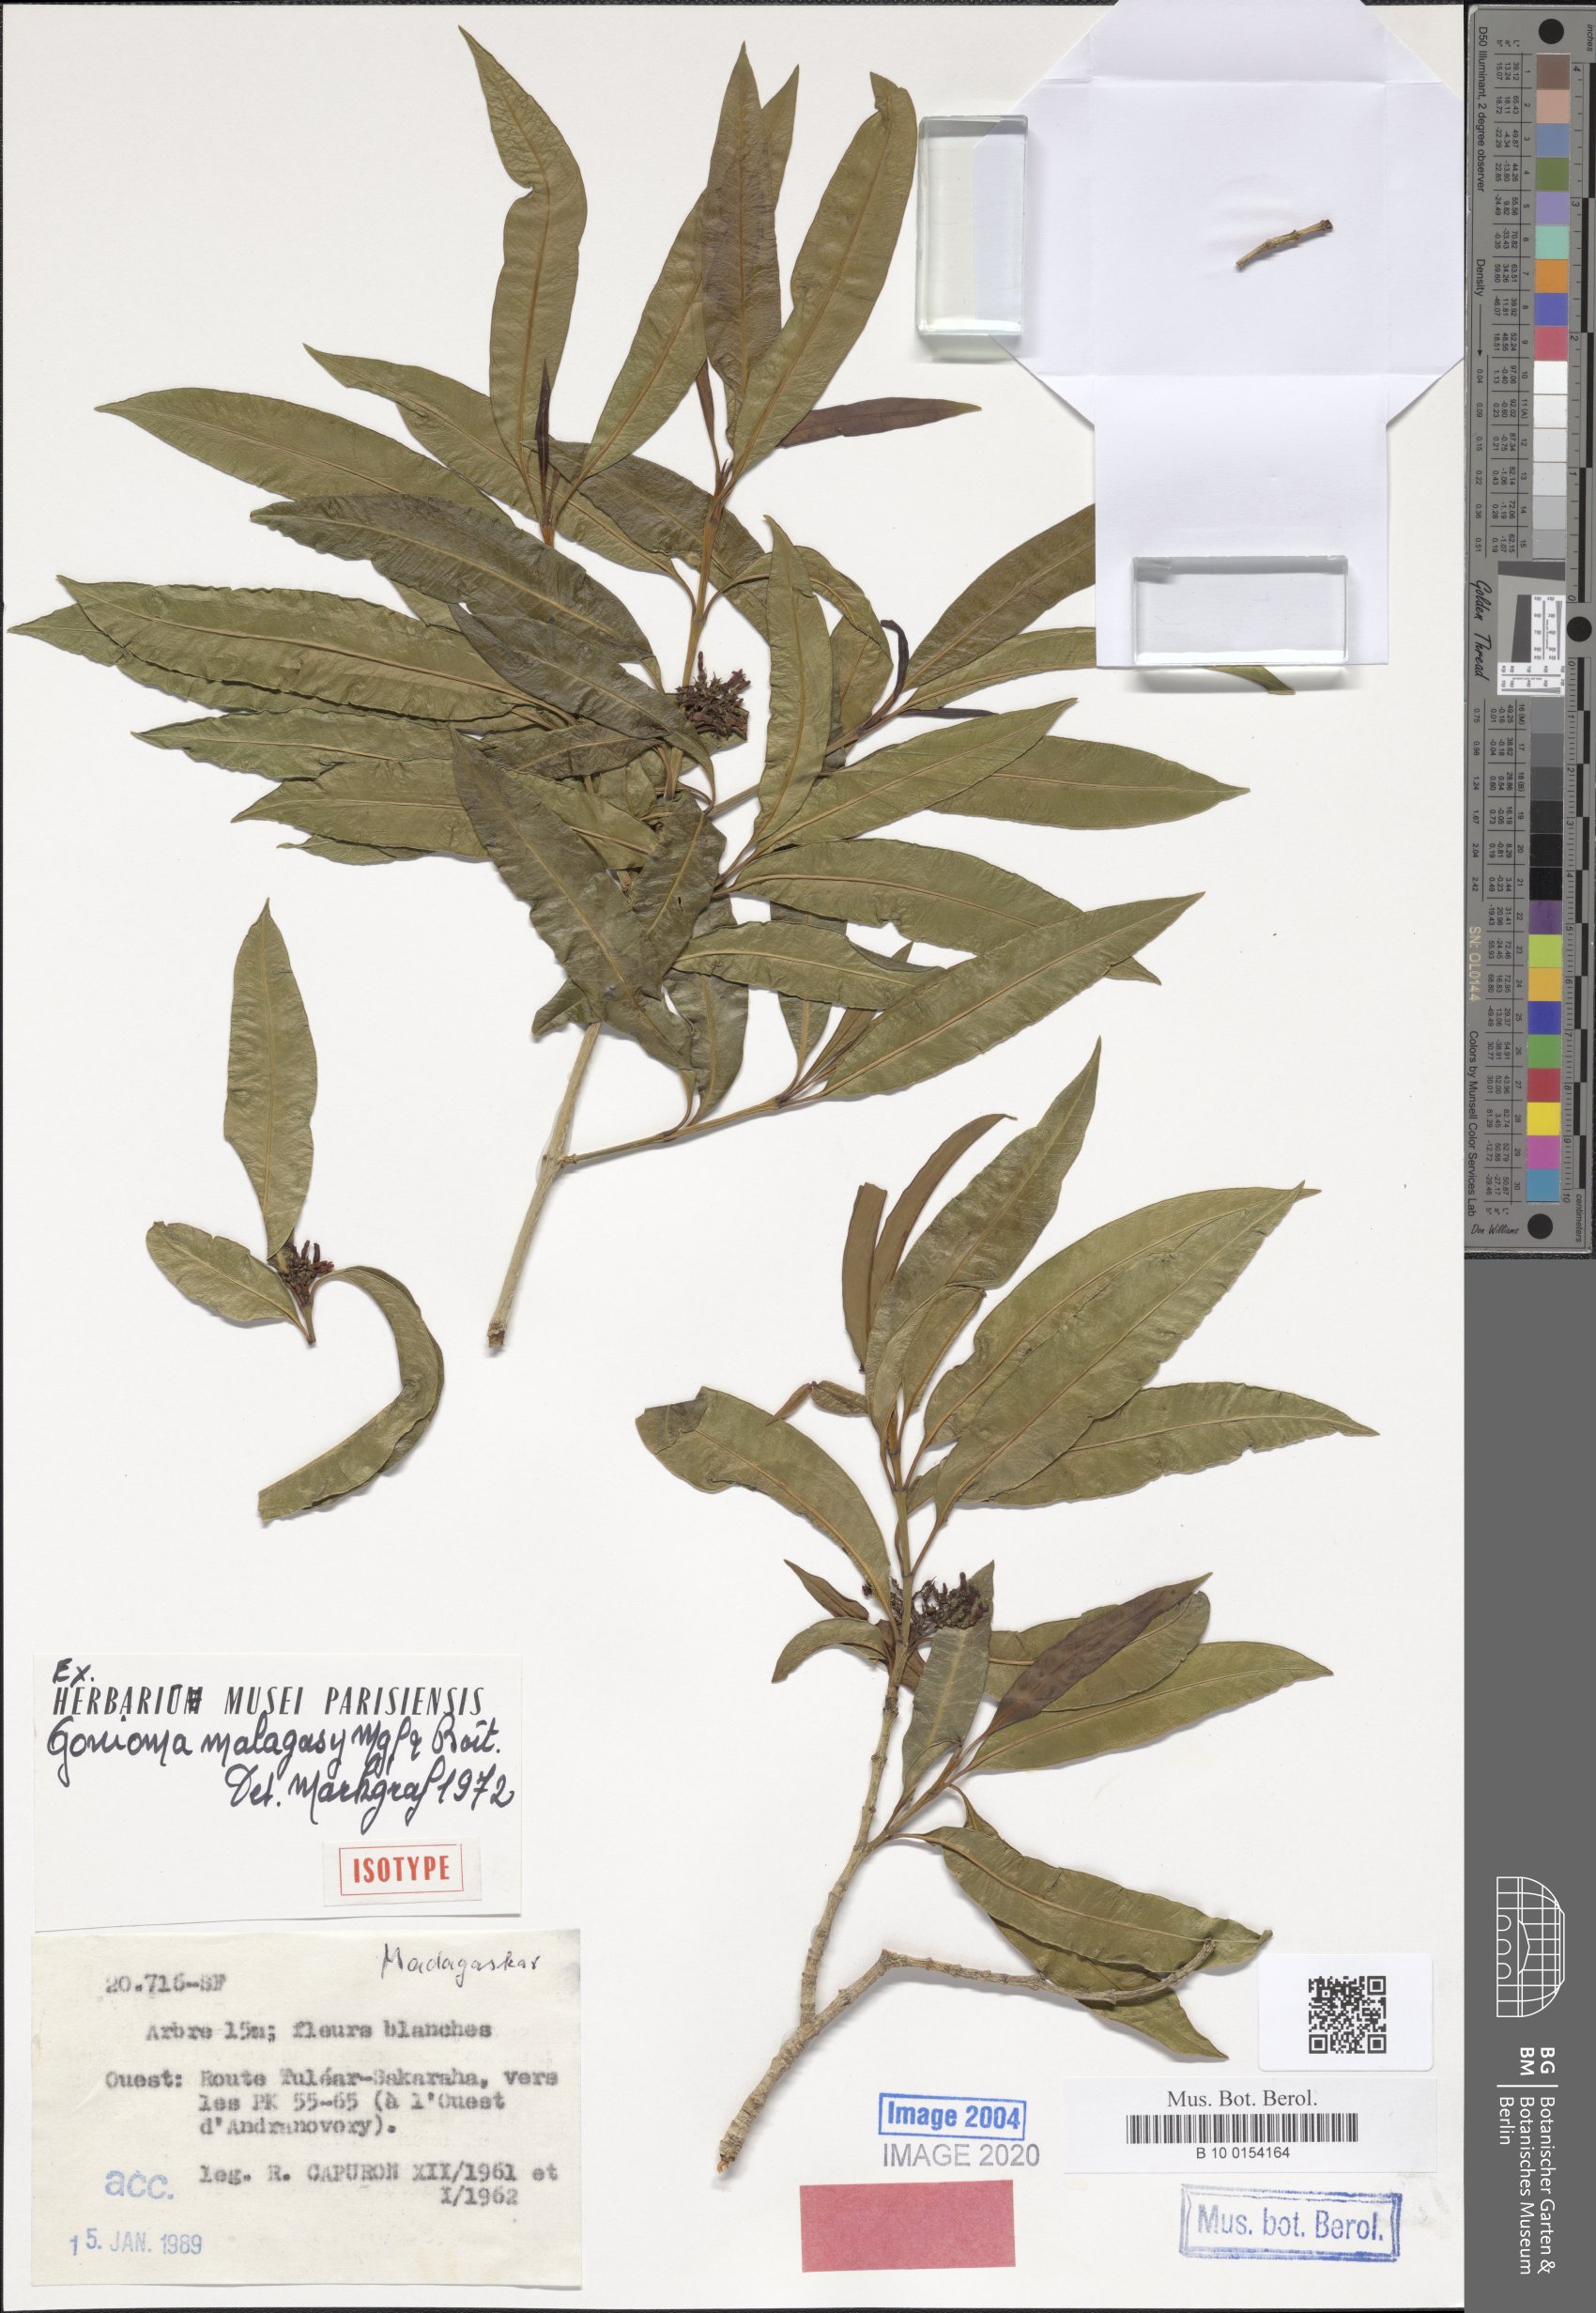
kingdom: Plantae
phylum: Tracheophyta
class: Magnoliopsida
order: Gentianales
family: Apocynaceae
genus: Gonioma
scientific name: Gonioma malagasy
